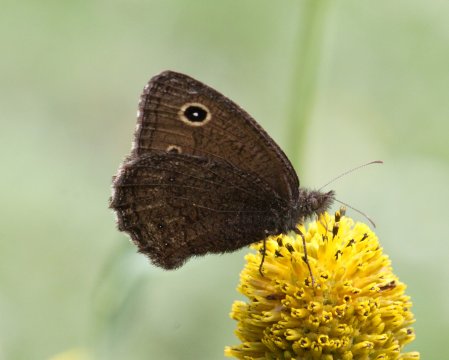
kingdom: Animalia
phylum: Arthropoda
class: Insecta
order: Lepidoptera
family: Nymphalidae
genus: Cercyonis
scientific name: Cercyonis oetus
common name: Small Wood-Nymph
